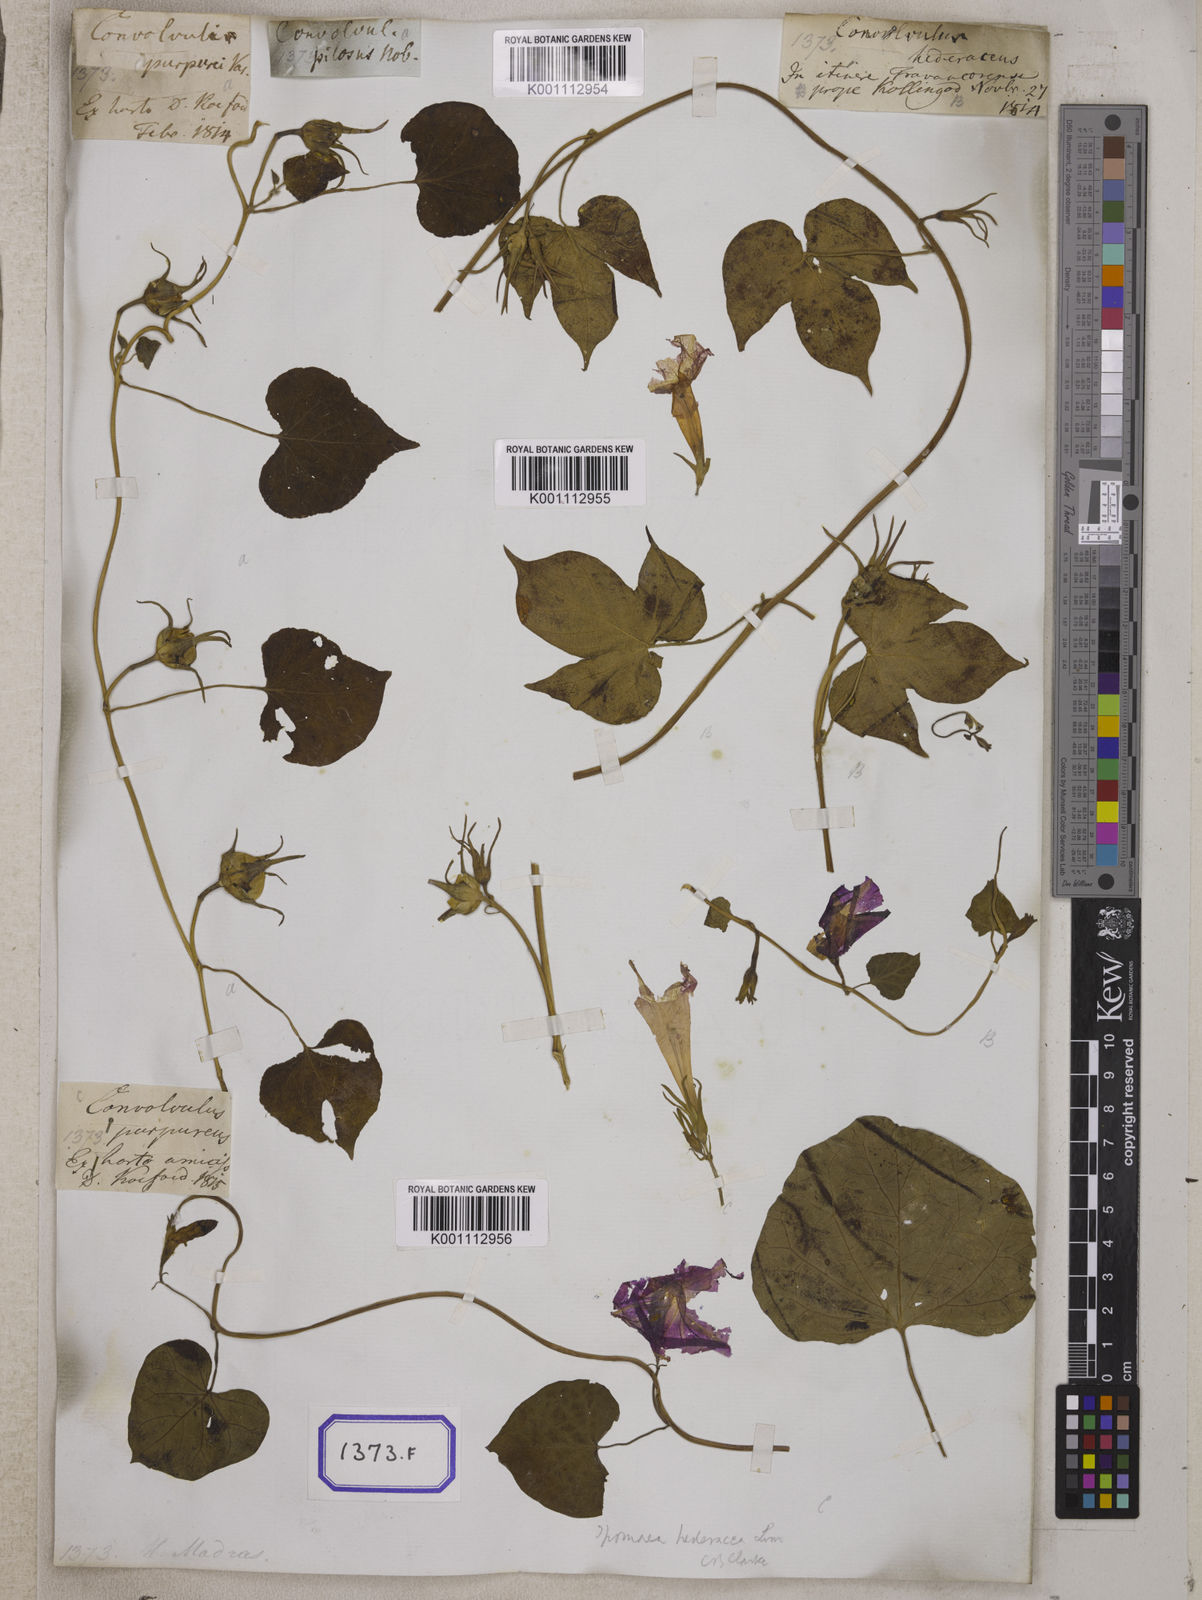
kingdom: Plantae
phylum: Tracheophyta
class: Magnoliopsida
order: Solanales
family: Convolvulaceae
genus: Ipomoea
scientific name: Ipomoea nil
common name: Japanese morning-glory
